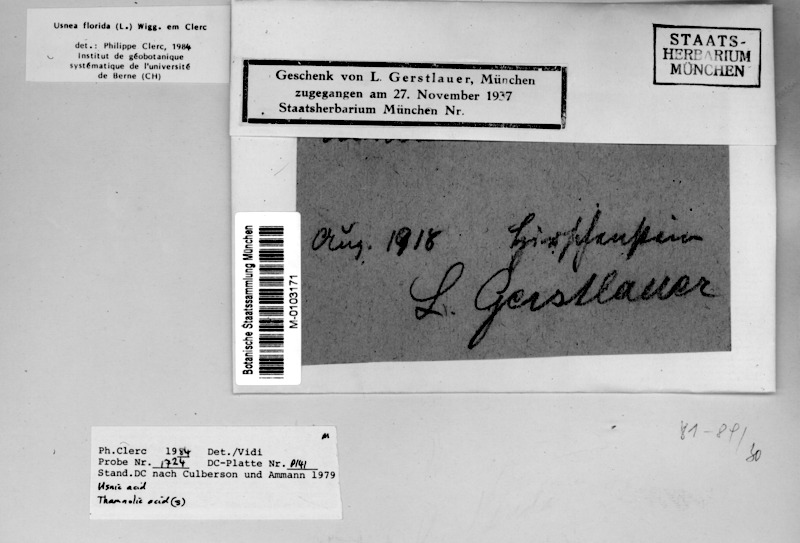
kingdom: Fungi
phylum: Ascomycota
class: Lecanoromycetes
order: Lecanorales
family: Parmeliaceae
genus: Usnea
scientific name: Usnea florida
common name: Witches' whiskers lichen
